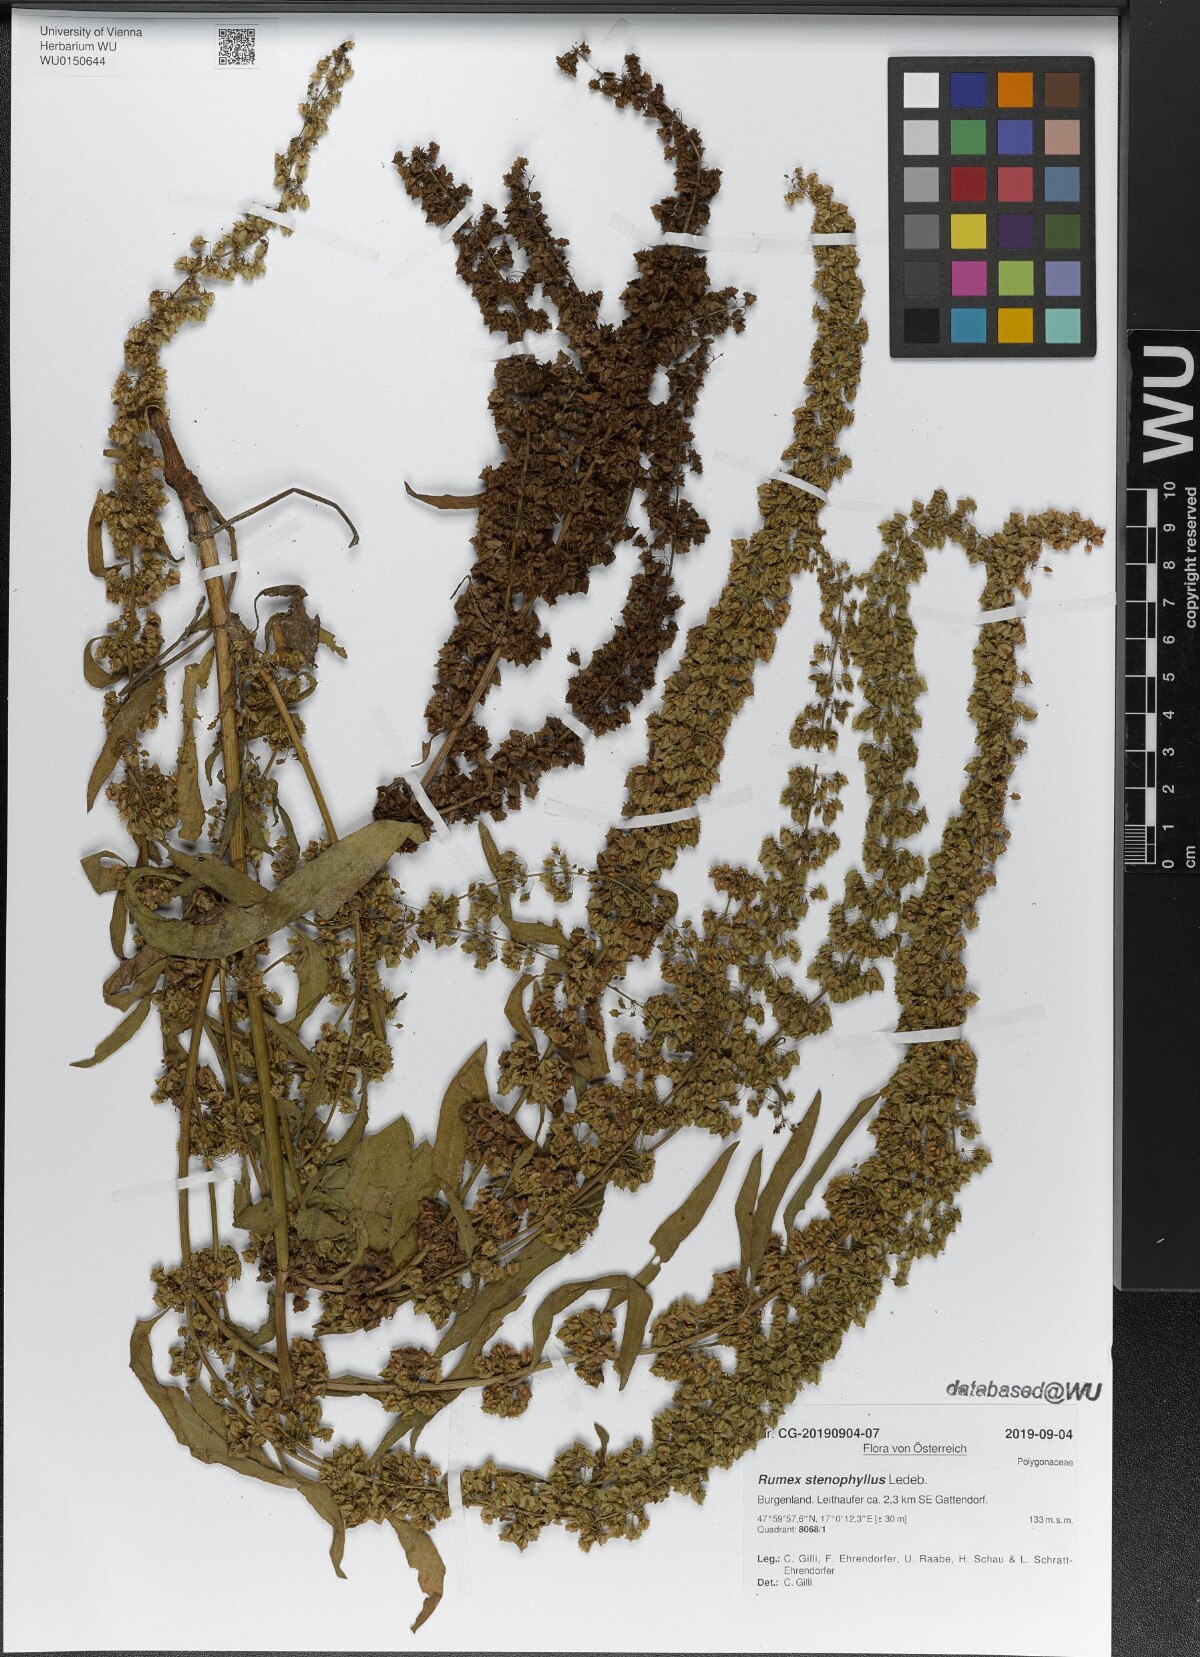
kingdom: Plantae
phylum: Tracheophyta
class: Magnoliopsida
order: Caryophyllales
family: Polygonaceae
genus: Rumex
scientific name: Rumex stenophyllus
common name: Narrowleaf dock
